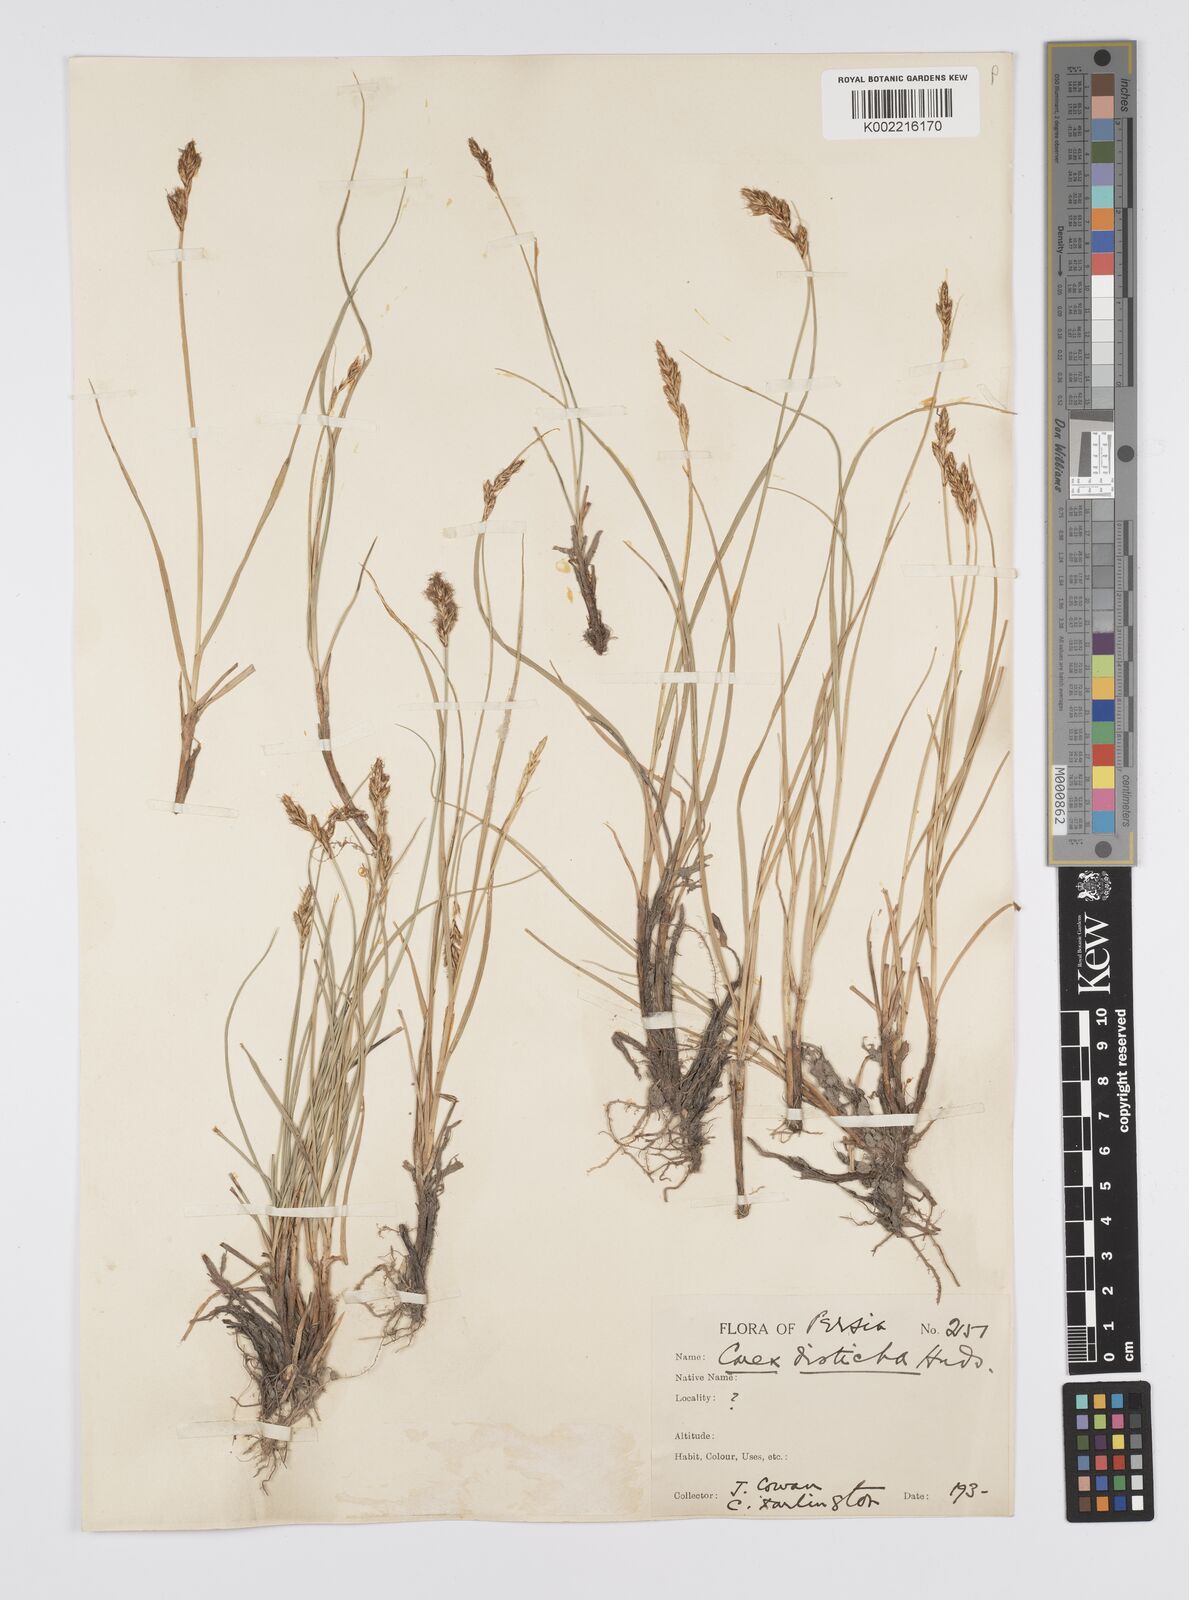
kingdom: Plantae
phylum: Tracheophyta
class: Liliopsida
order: Poales
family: Cyperaceae
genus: Carex
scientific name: Carex divisa
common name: Divided sedge
